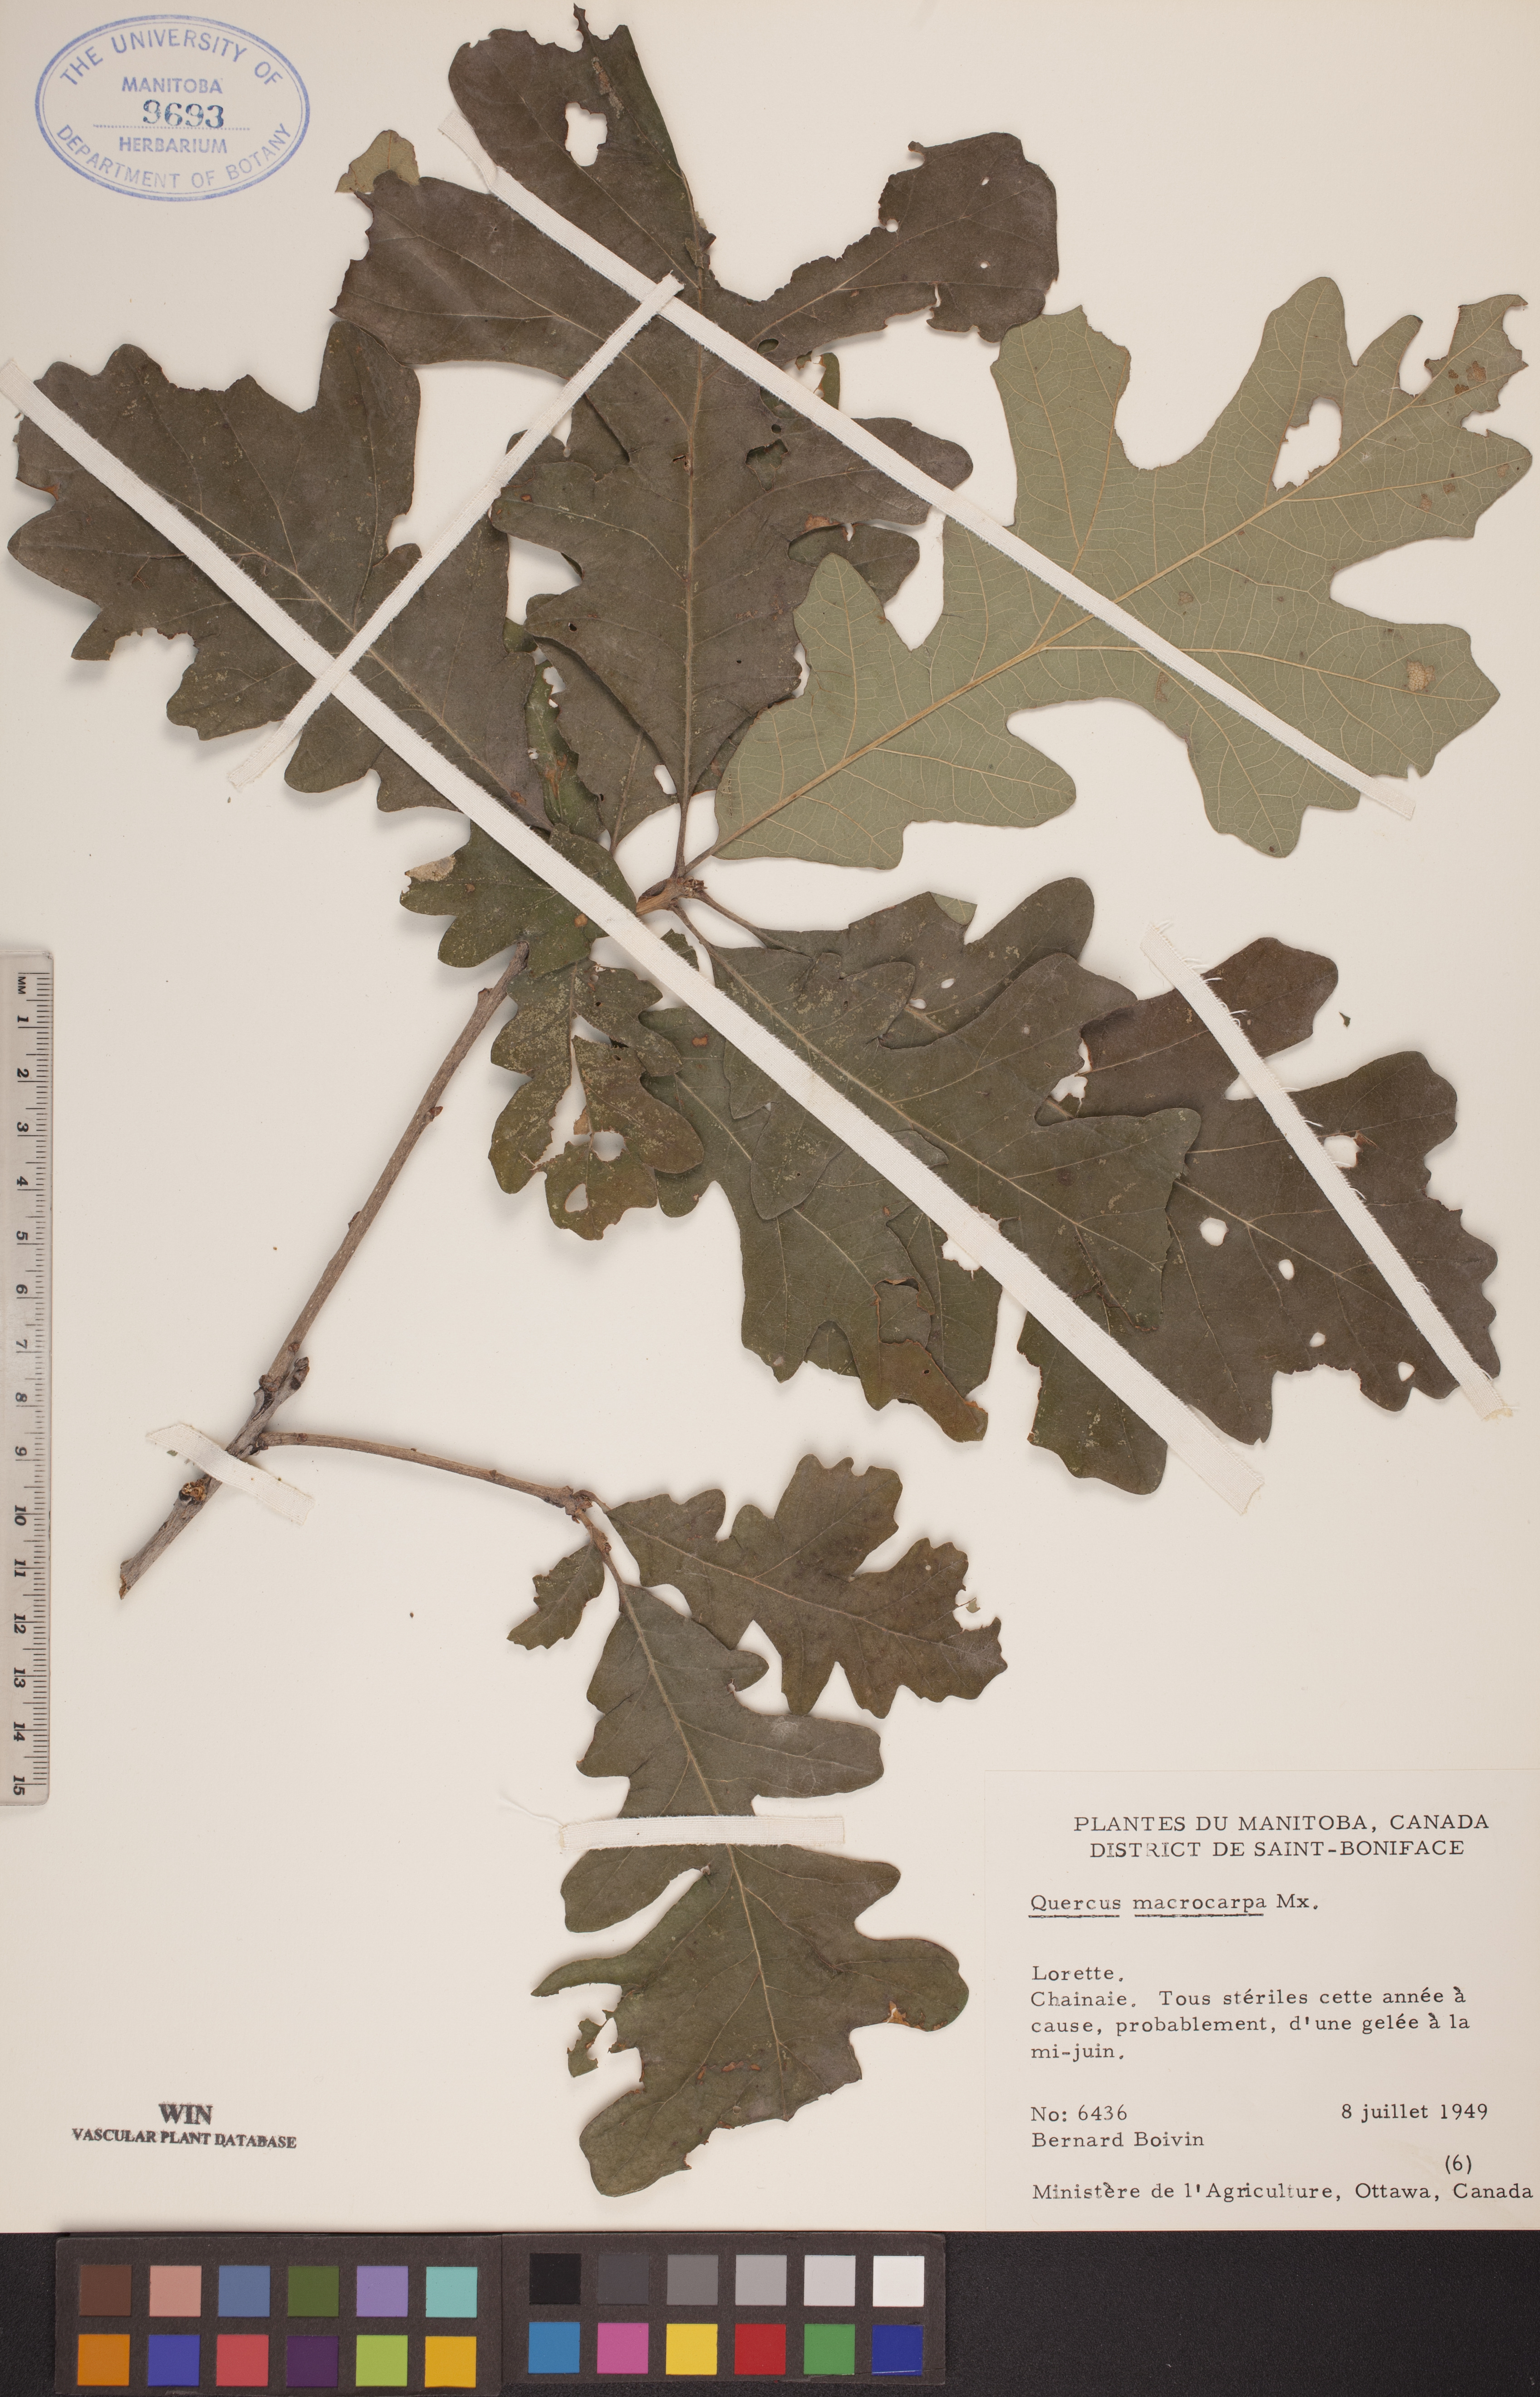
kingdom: Plantae
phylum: Tracheophyta
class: Magnoliopsida
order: Fagales
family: Fagaceae
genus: Quercus
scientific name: Quercus macrocarpa
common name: Bur oak
